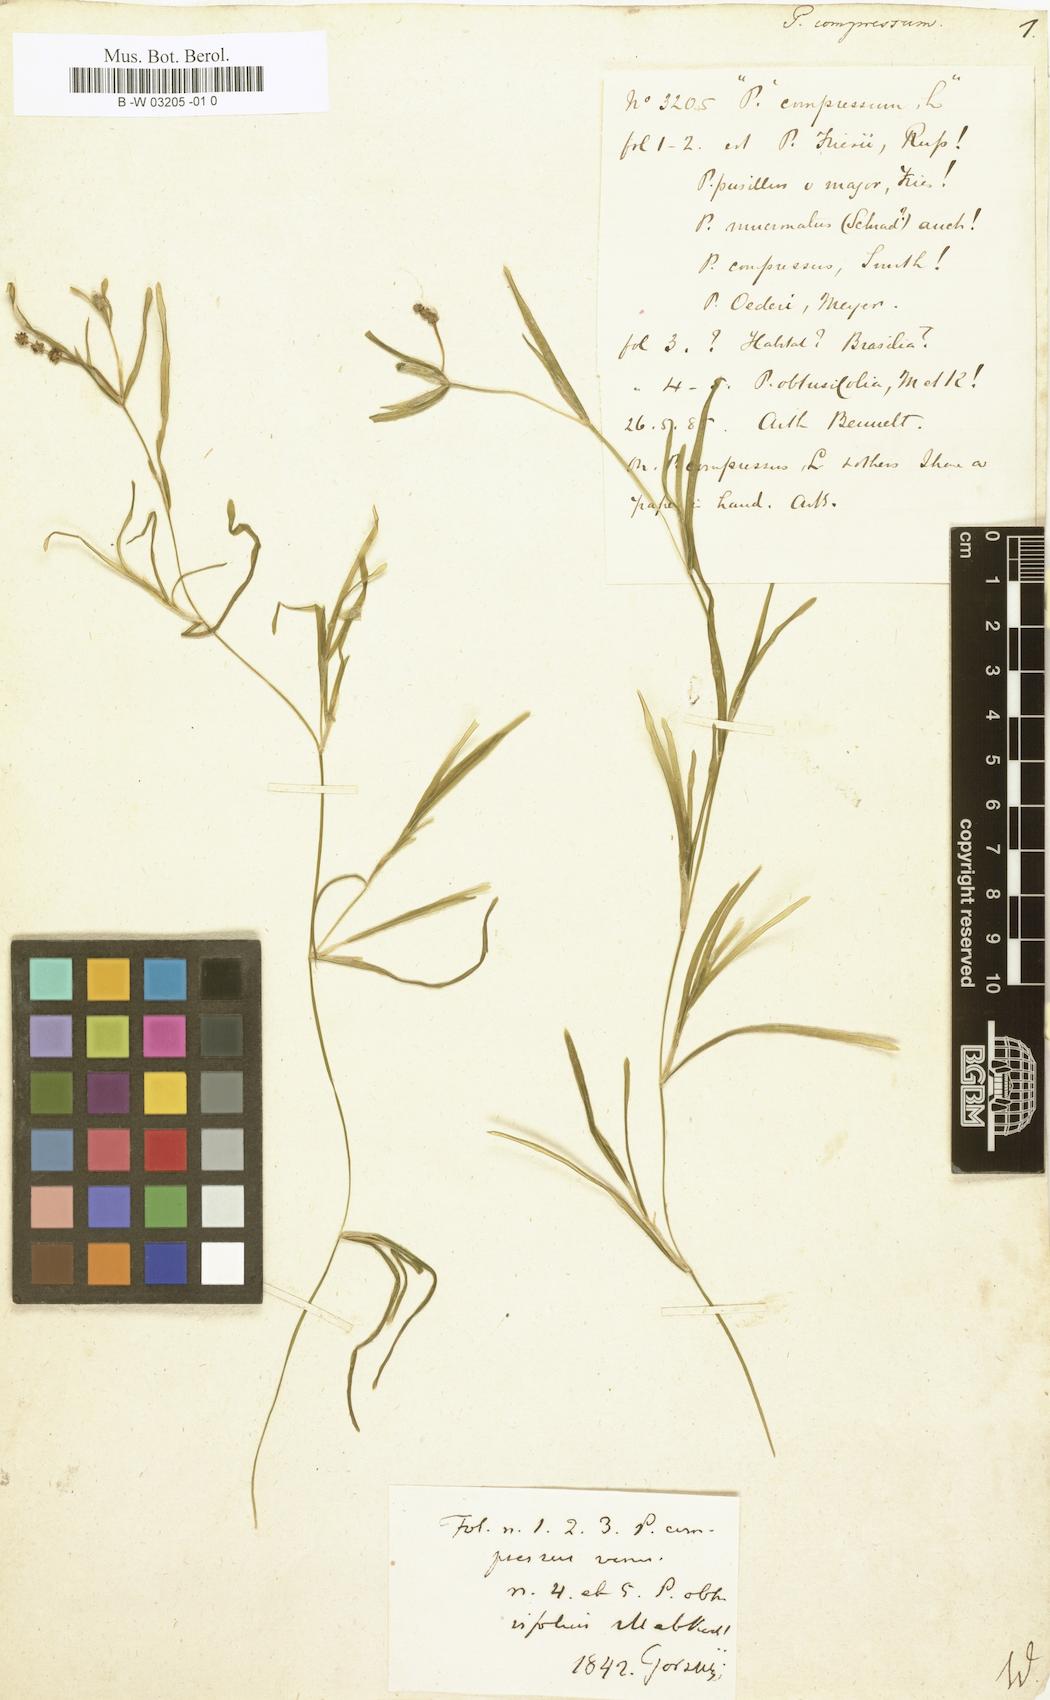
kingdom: Plantae
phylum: Tracheophyta
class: Liliopsida
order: Alismatales
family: Potamogetonaceae
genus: Potamogeton
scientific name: Potamogeton compressus
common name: Grass-wrack pondweed
